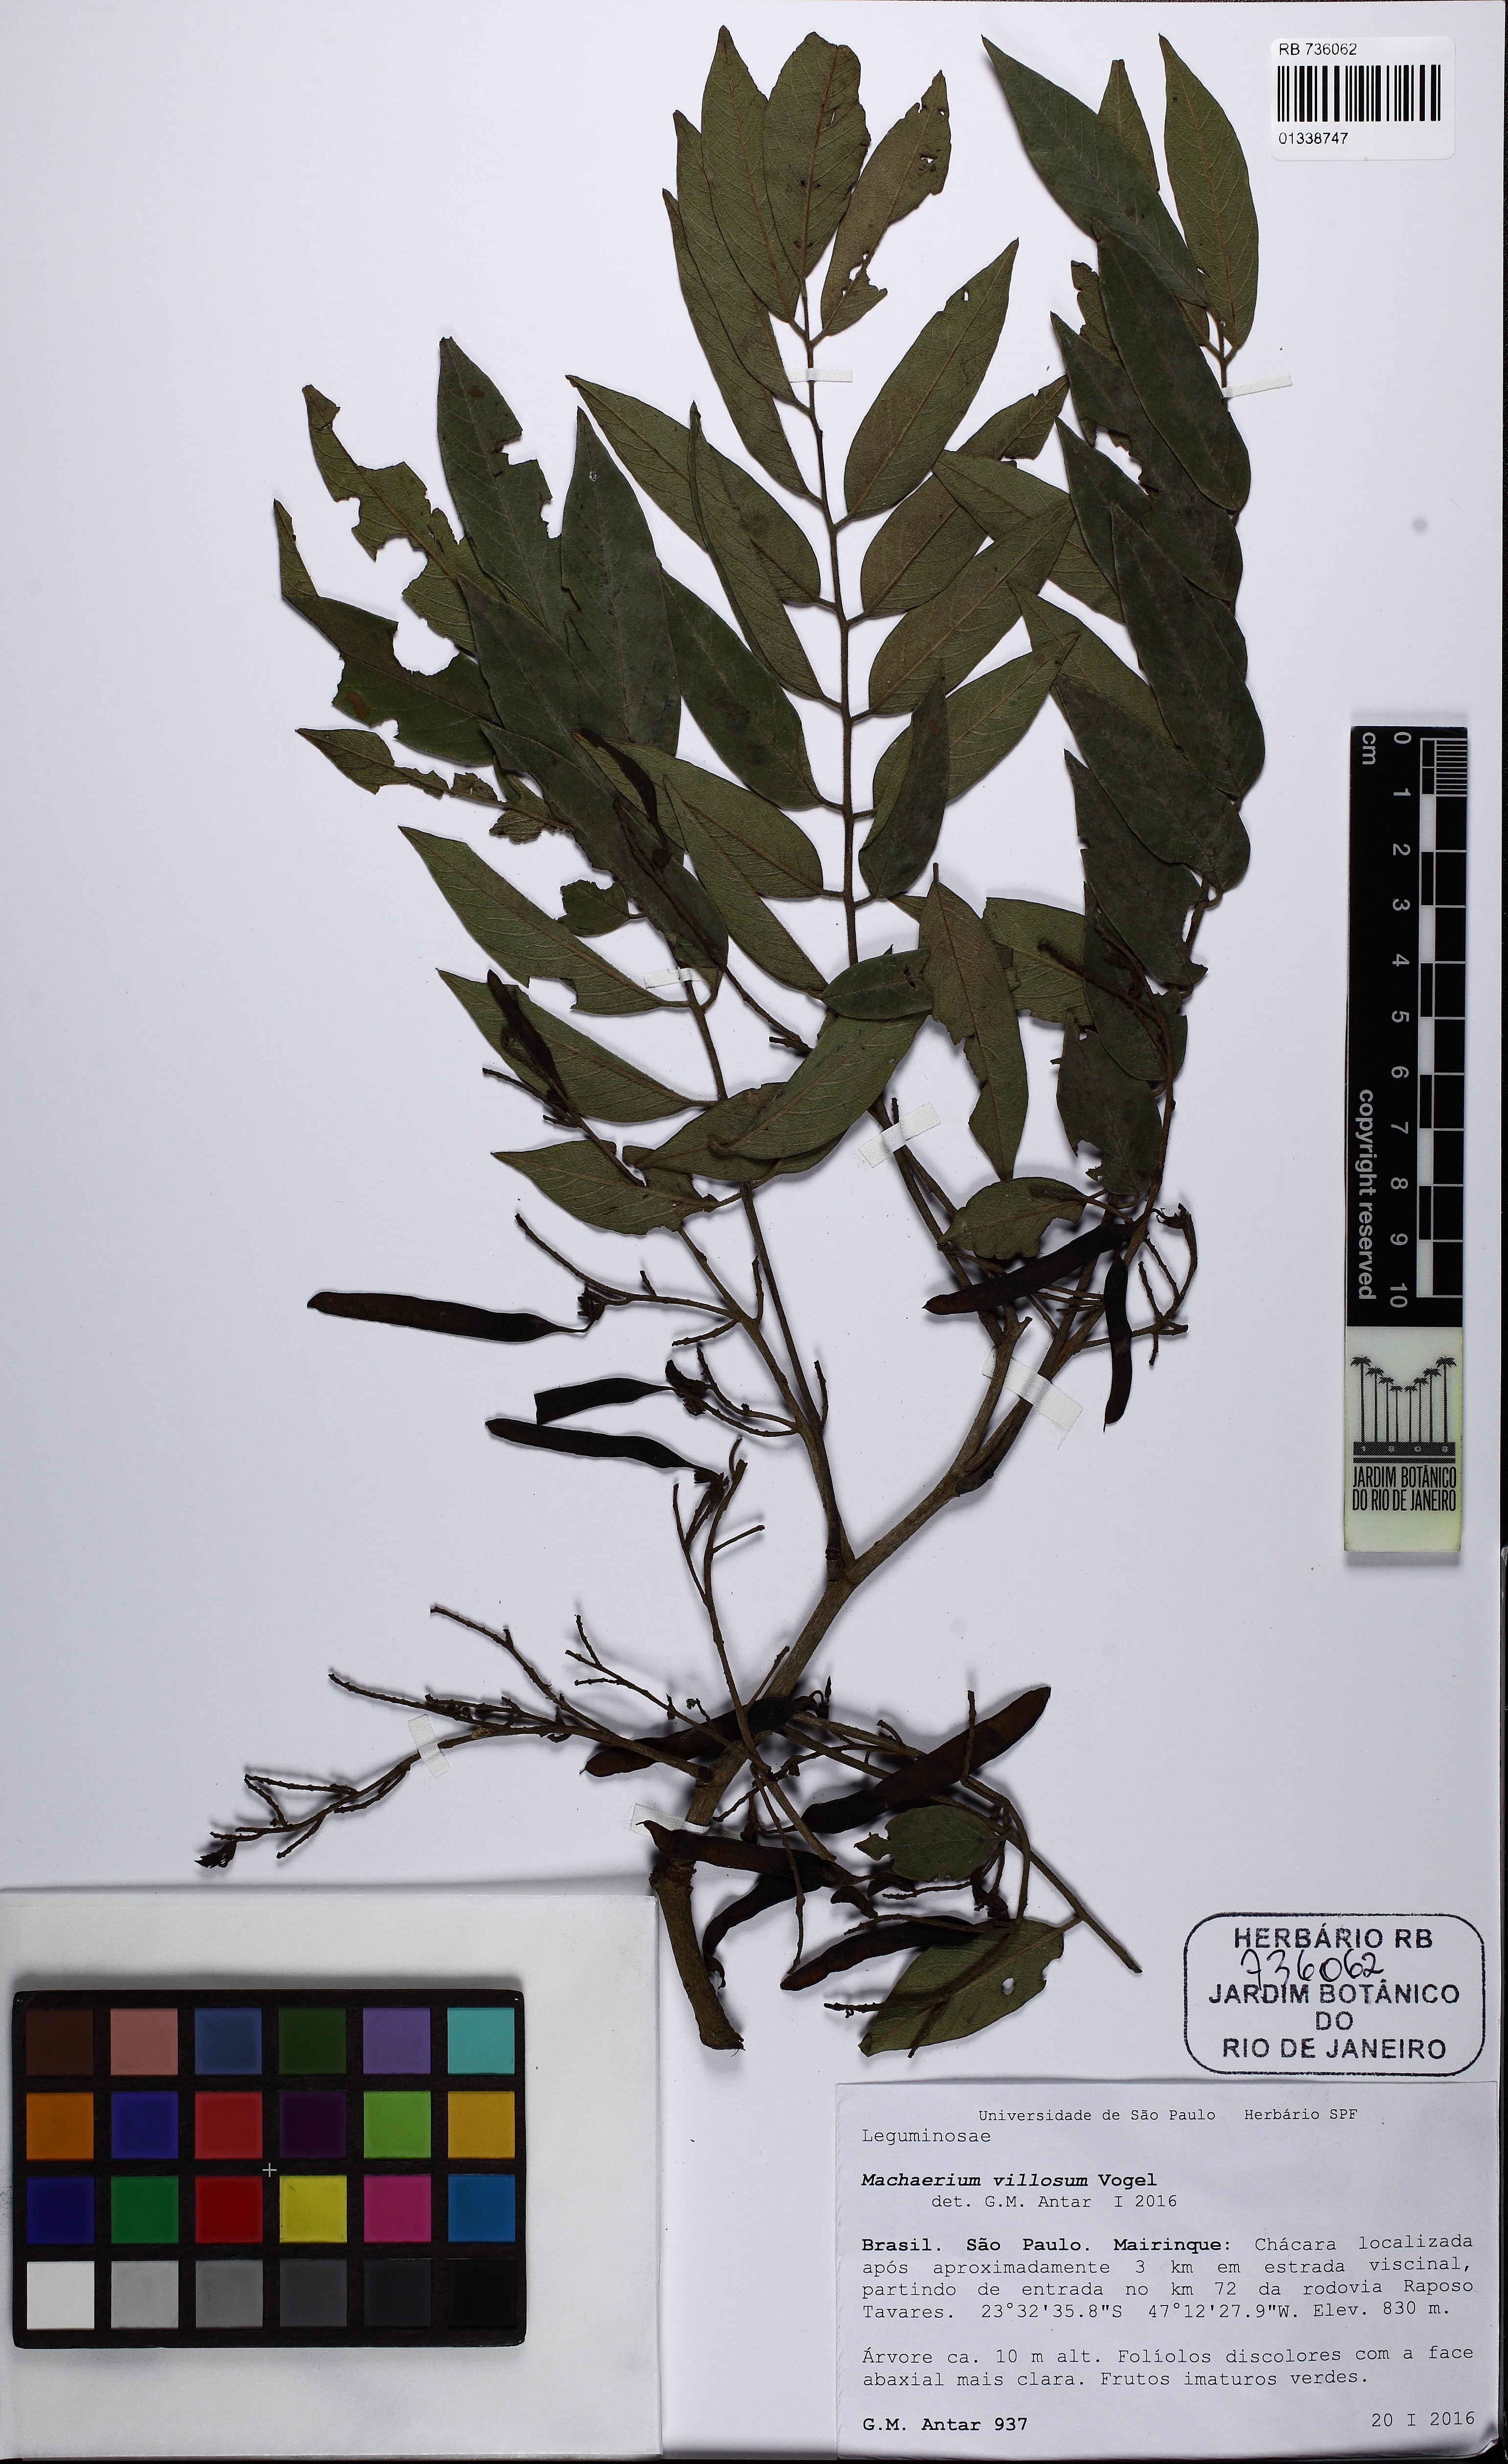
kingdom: Plantae
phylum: Tracheophyta
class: Magnoliopsida
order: Fabales
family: Fabaceae
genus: Machaerium
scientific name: Machaerium villosum
